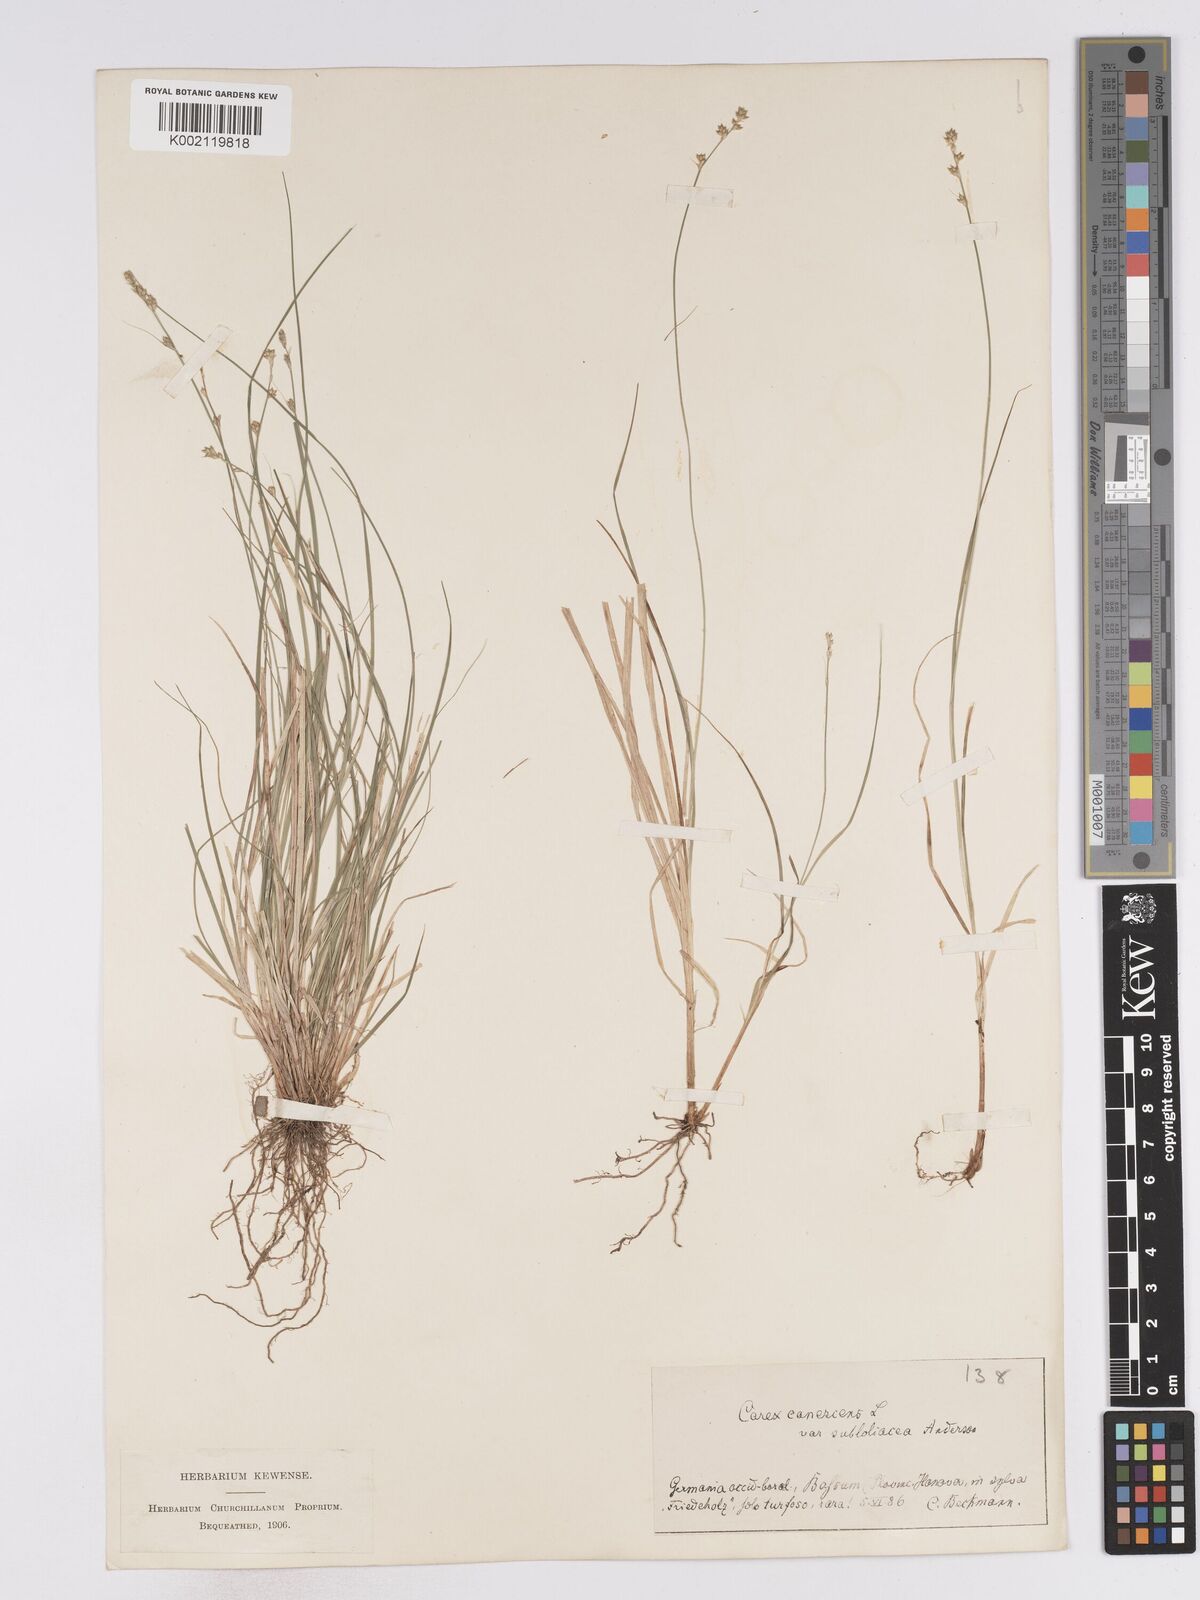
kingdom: Plantae
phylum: Tracheophyta
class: Liliopsida
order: Poales
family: Cyperaceae
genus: Carex
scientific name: Carex curta
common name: White sedge
